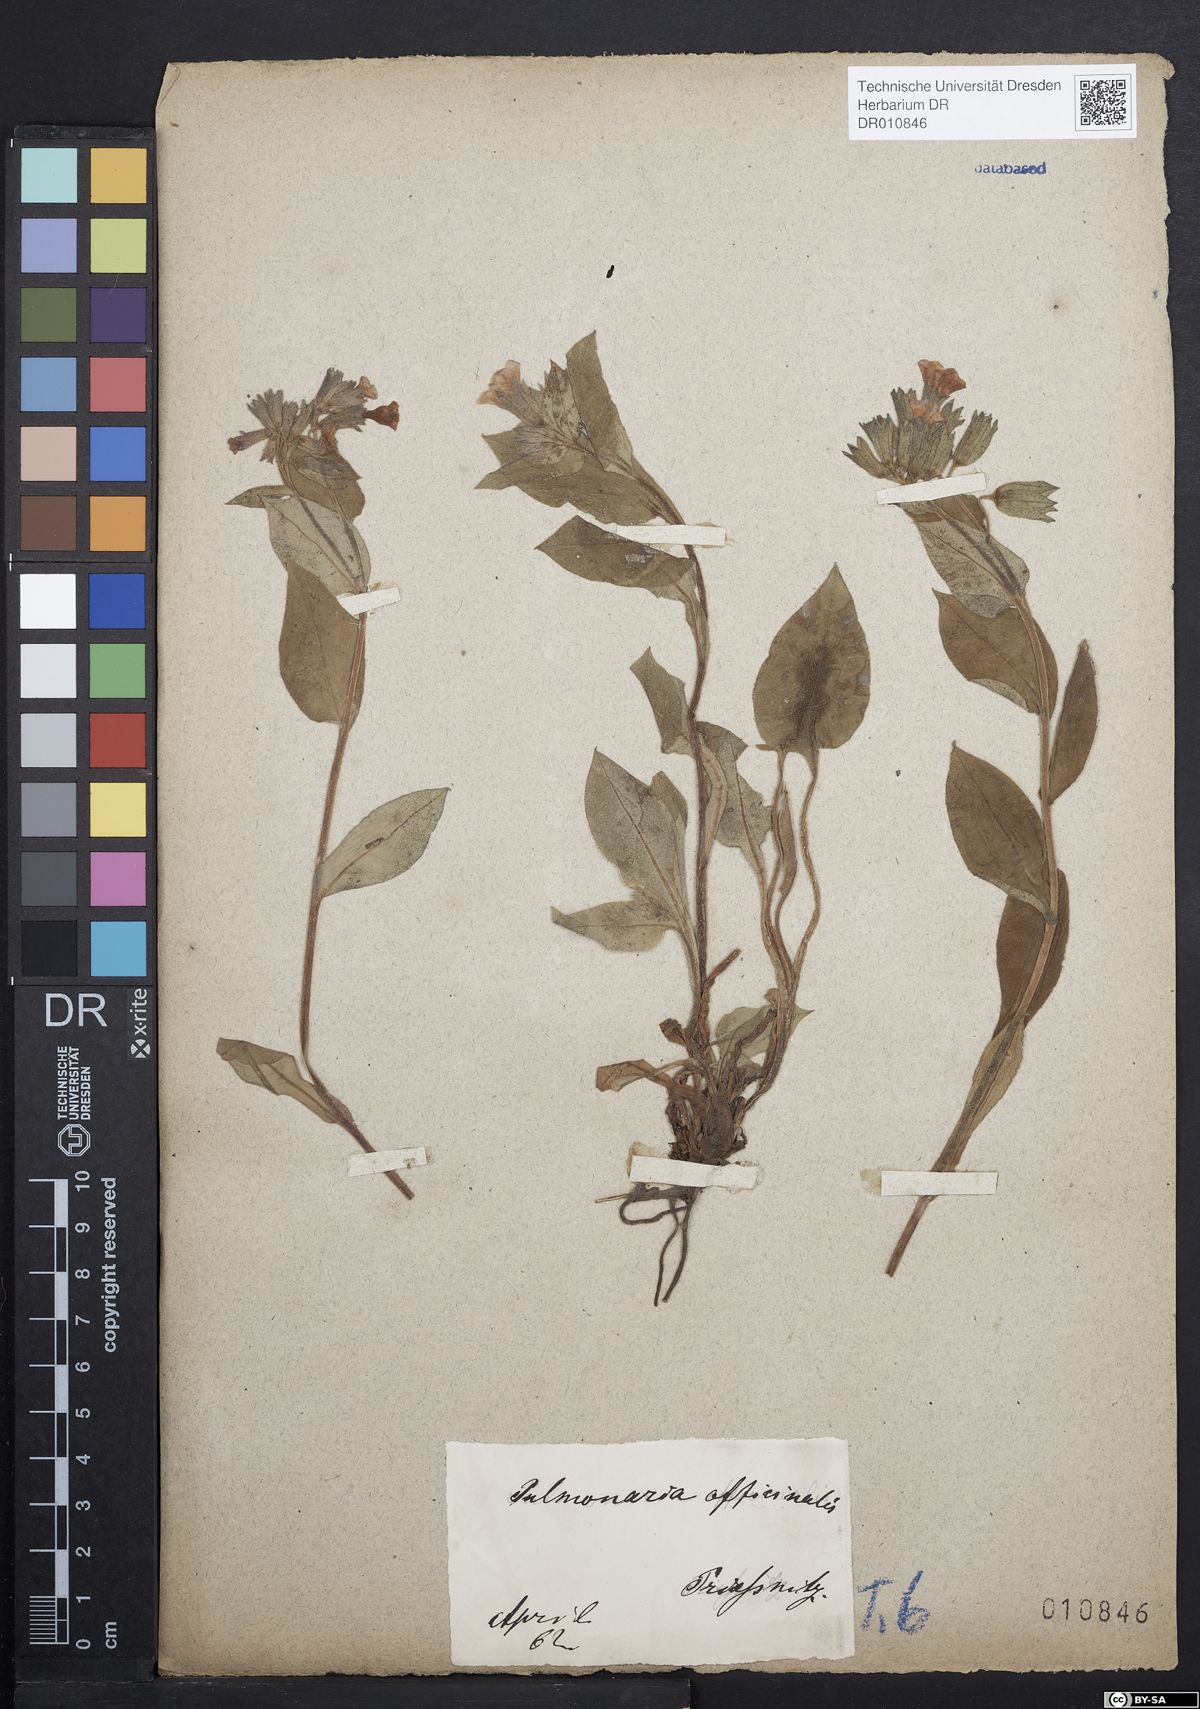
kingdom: Plantae
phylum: Tracheophyta
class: Magnoliopsida
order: Boraginales
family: Boraginaceae
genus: Pulmonaria
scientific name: Pulmonaria obscura
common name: Suffolk lungwort
